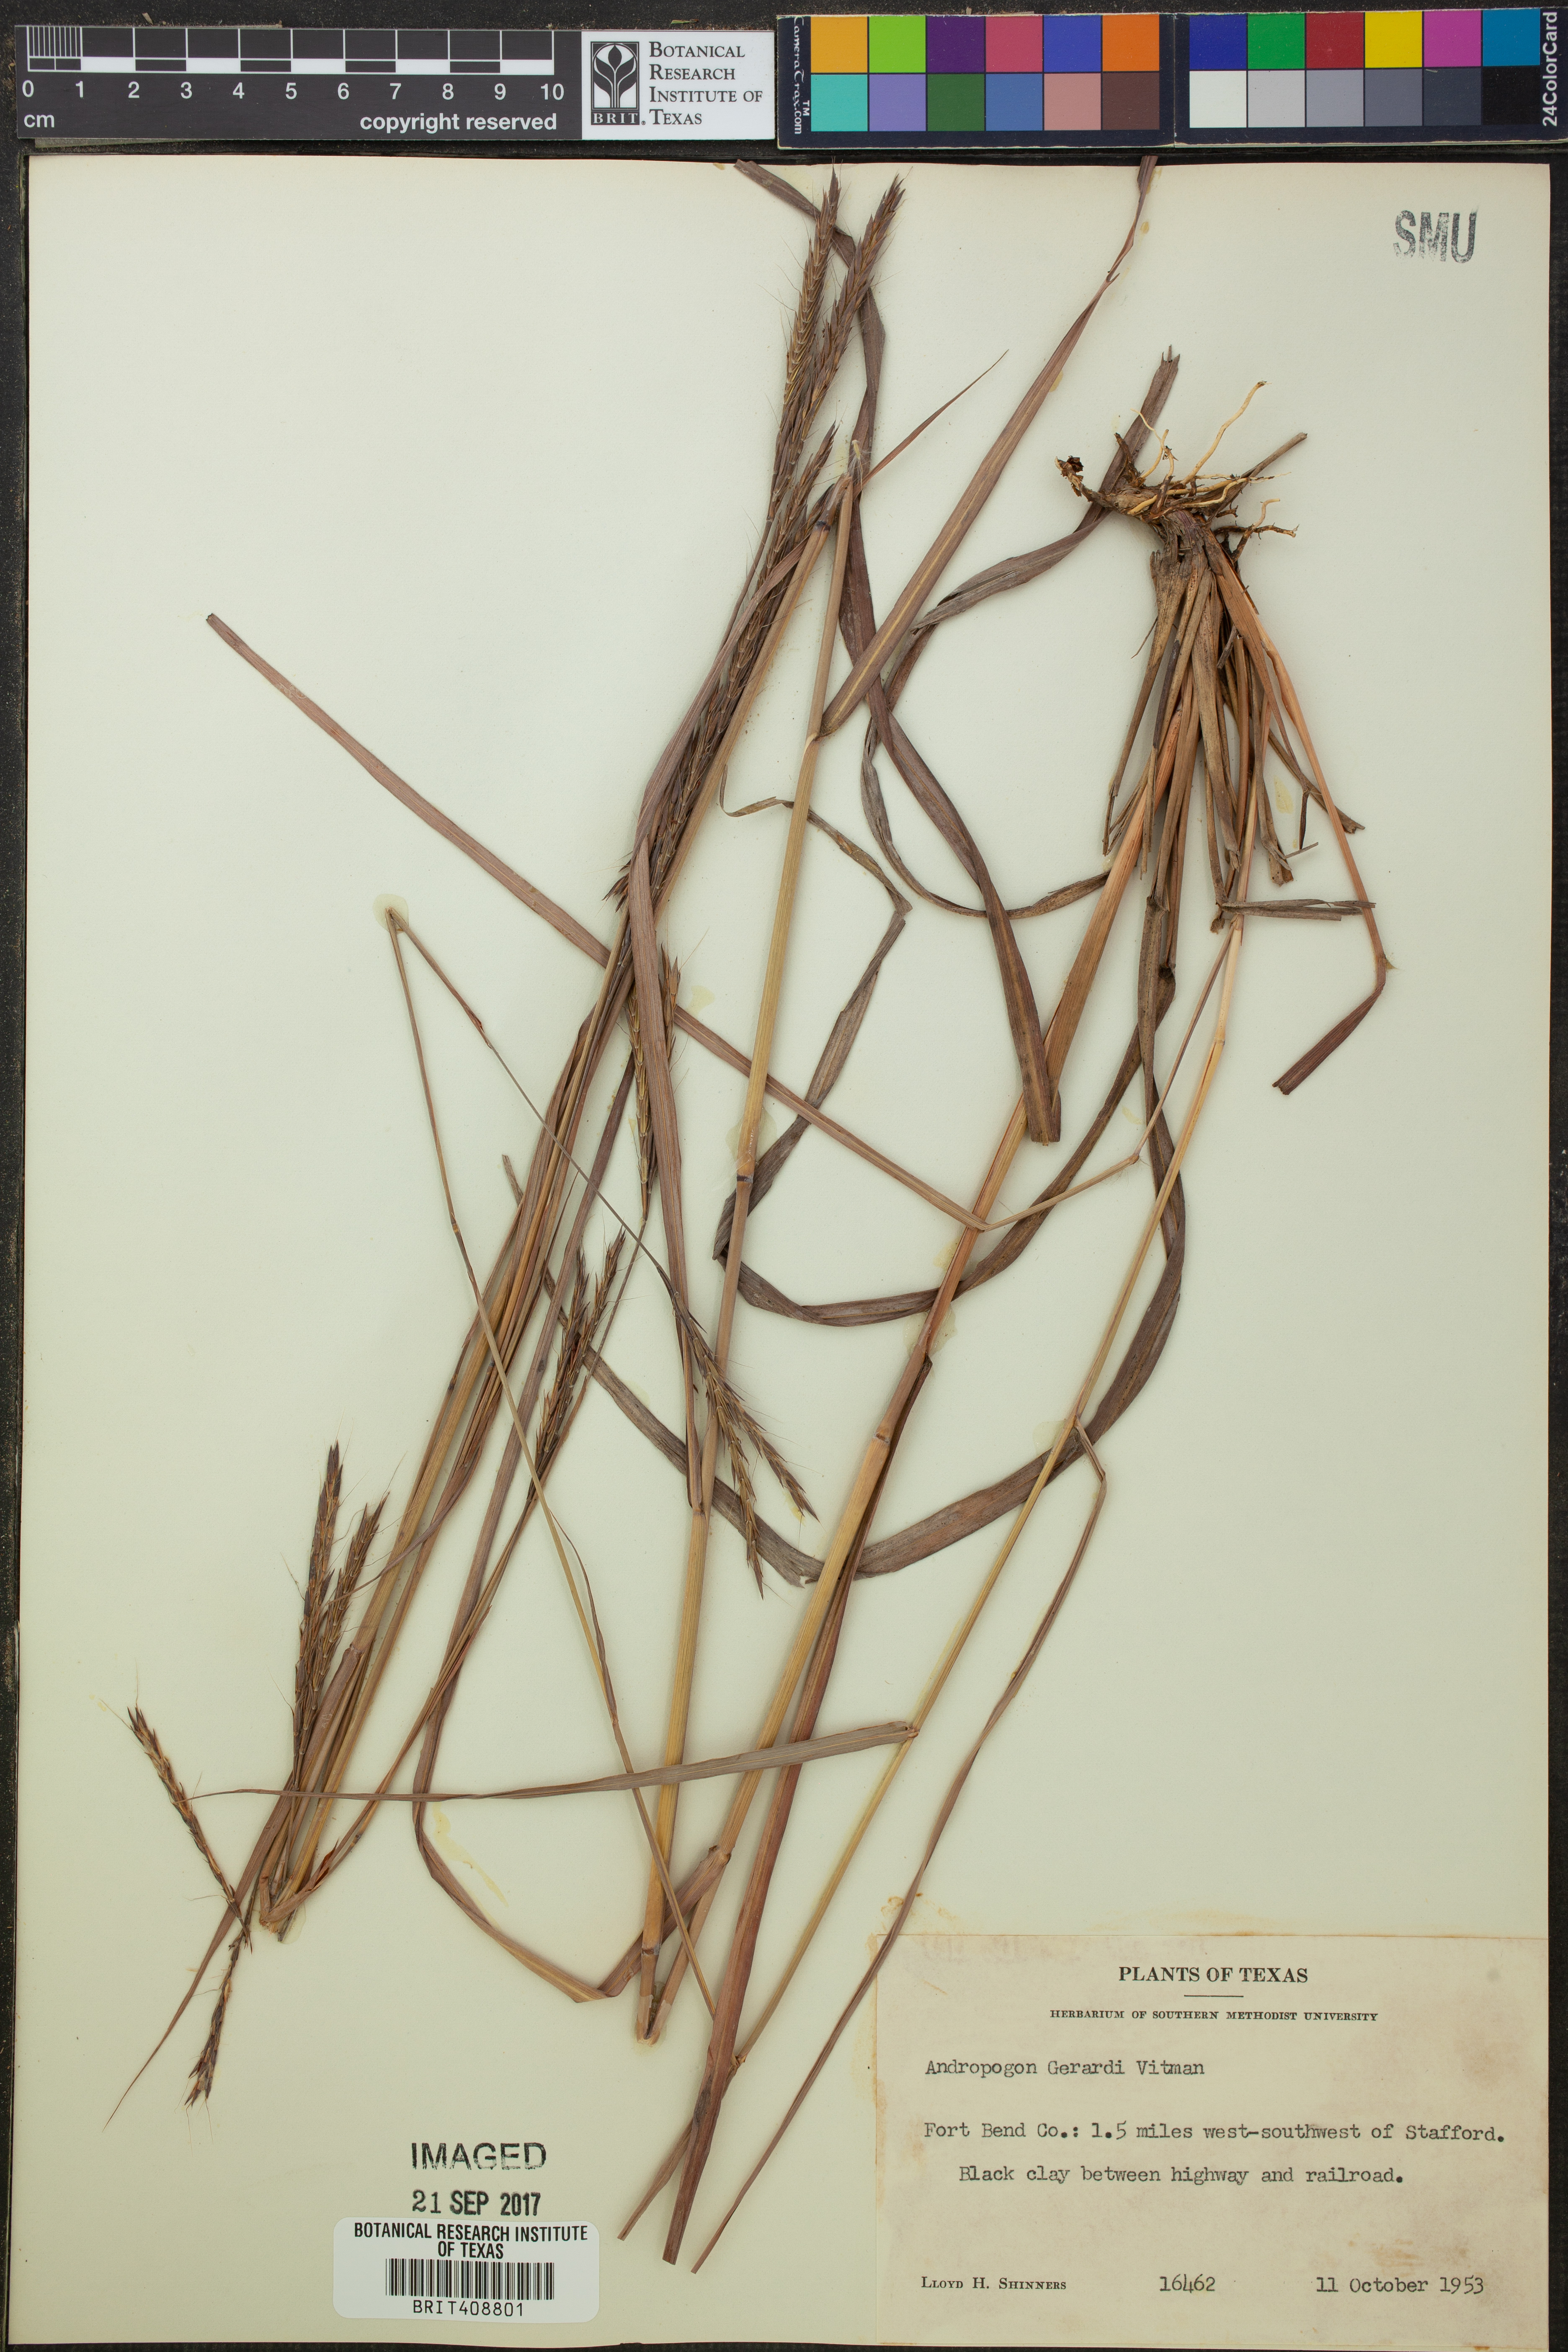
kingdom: Plantae
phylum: Tracheophyta
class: Liliopsida
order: Poales
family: Poaceae
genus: Andropogon
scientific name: Andropogon gerardi
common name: Big bluestem
